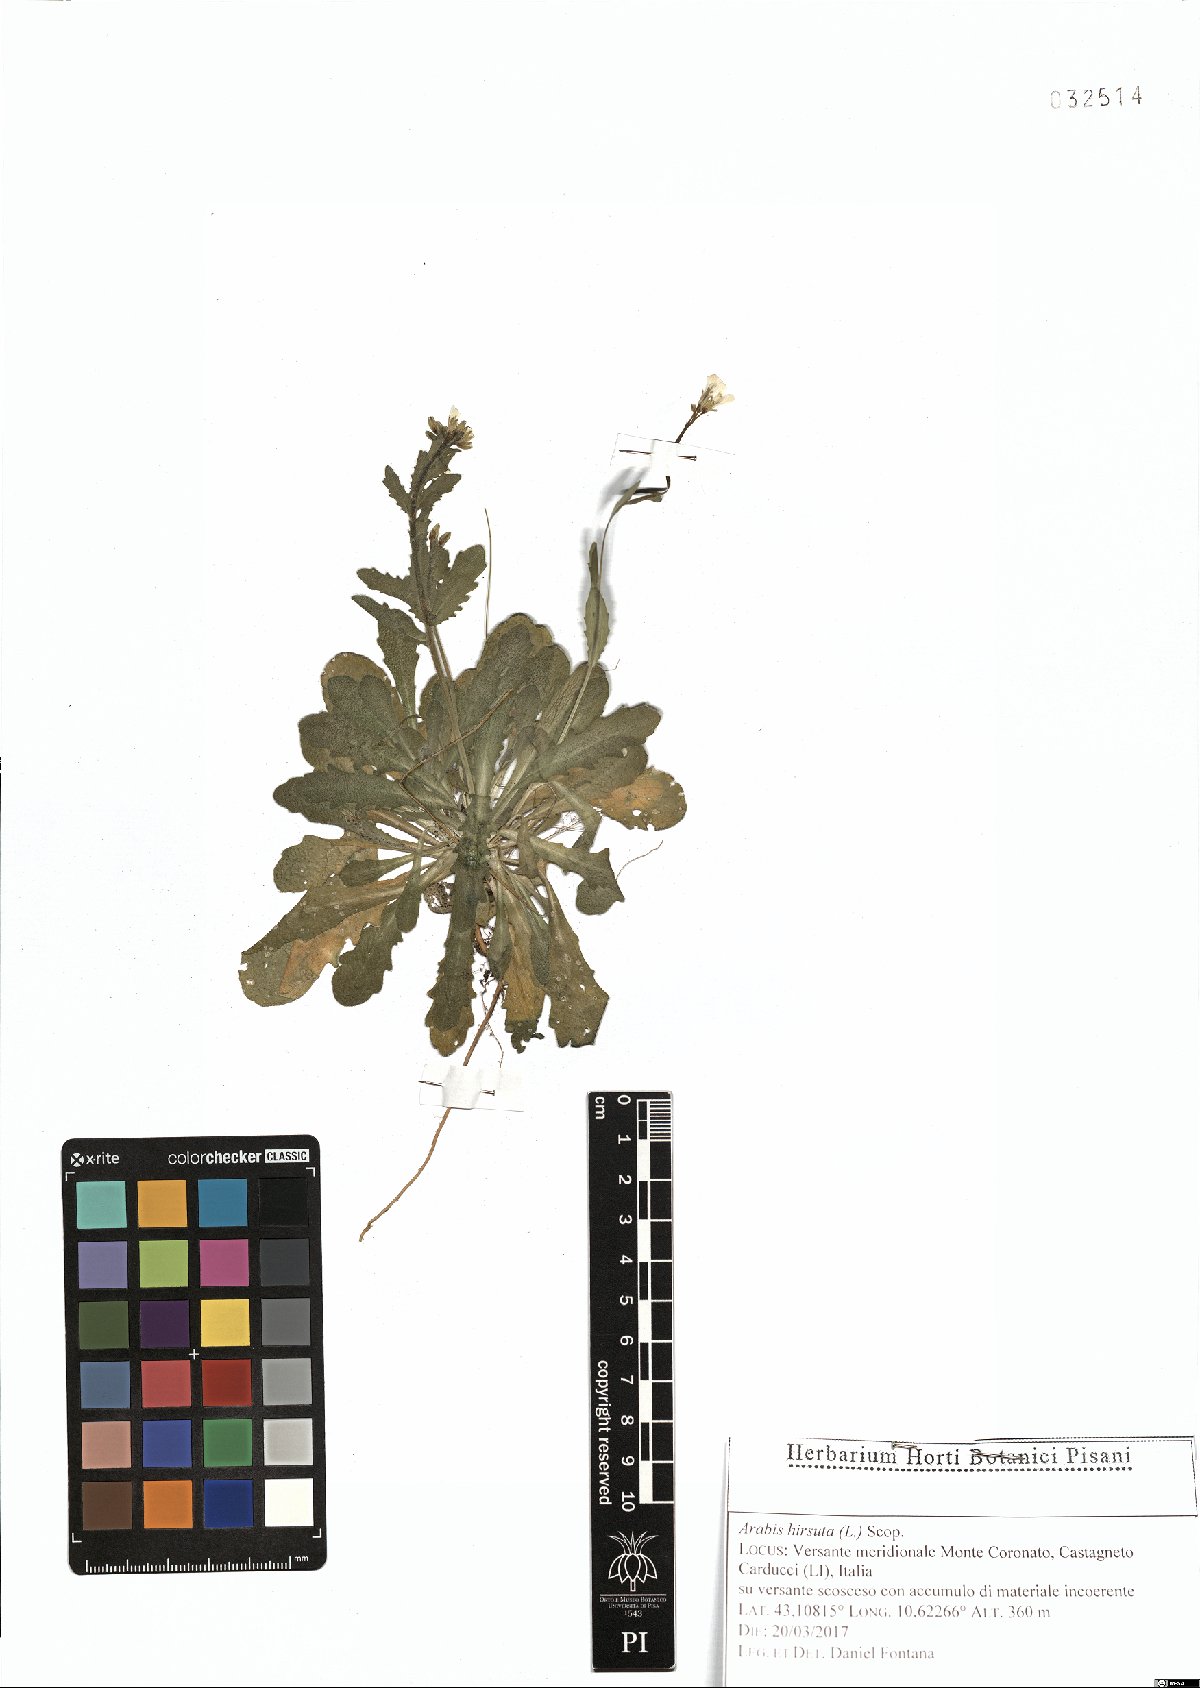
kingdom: Plantae
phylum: Tracheophyta
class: Magnoliopsida
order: Brassicales
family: Brassicaceae
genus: Arabis
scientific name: Arabis hirsuta
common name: Hairy rock-cress
